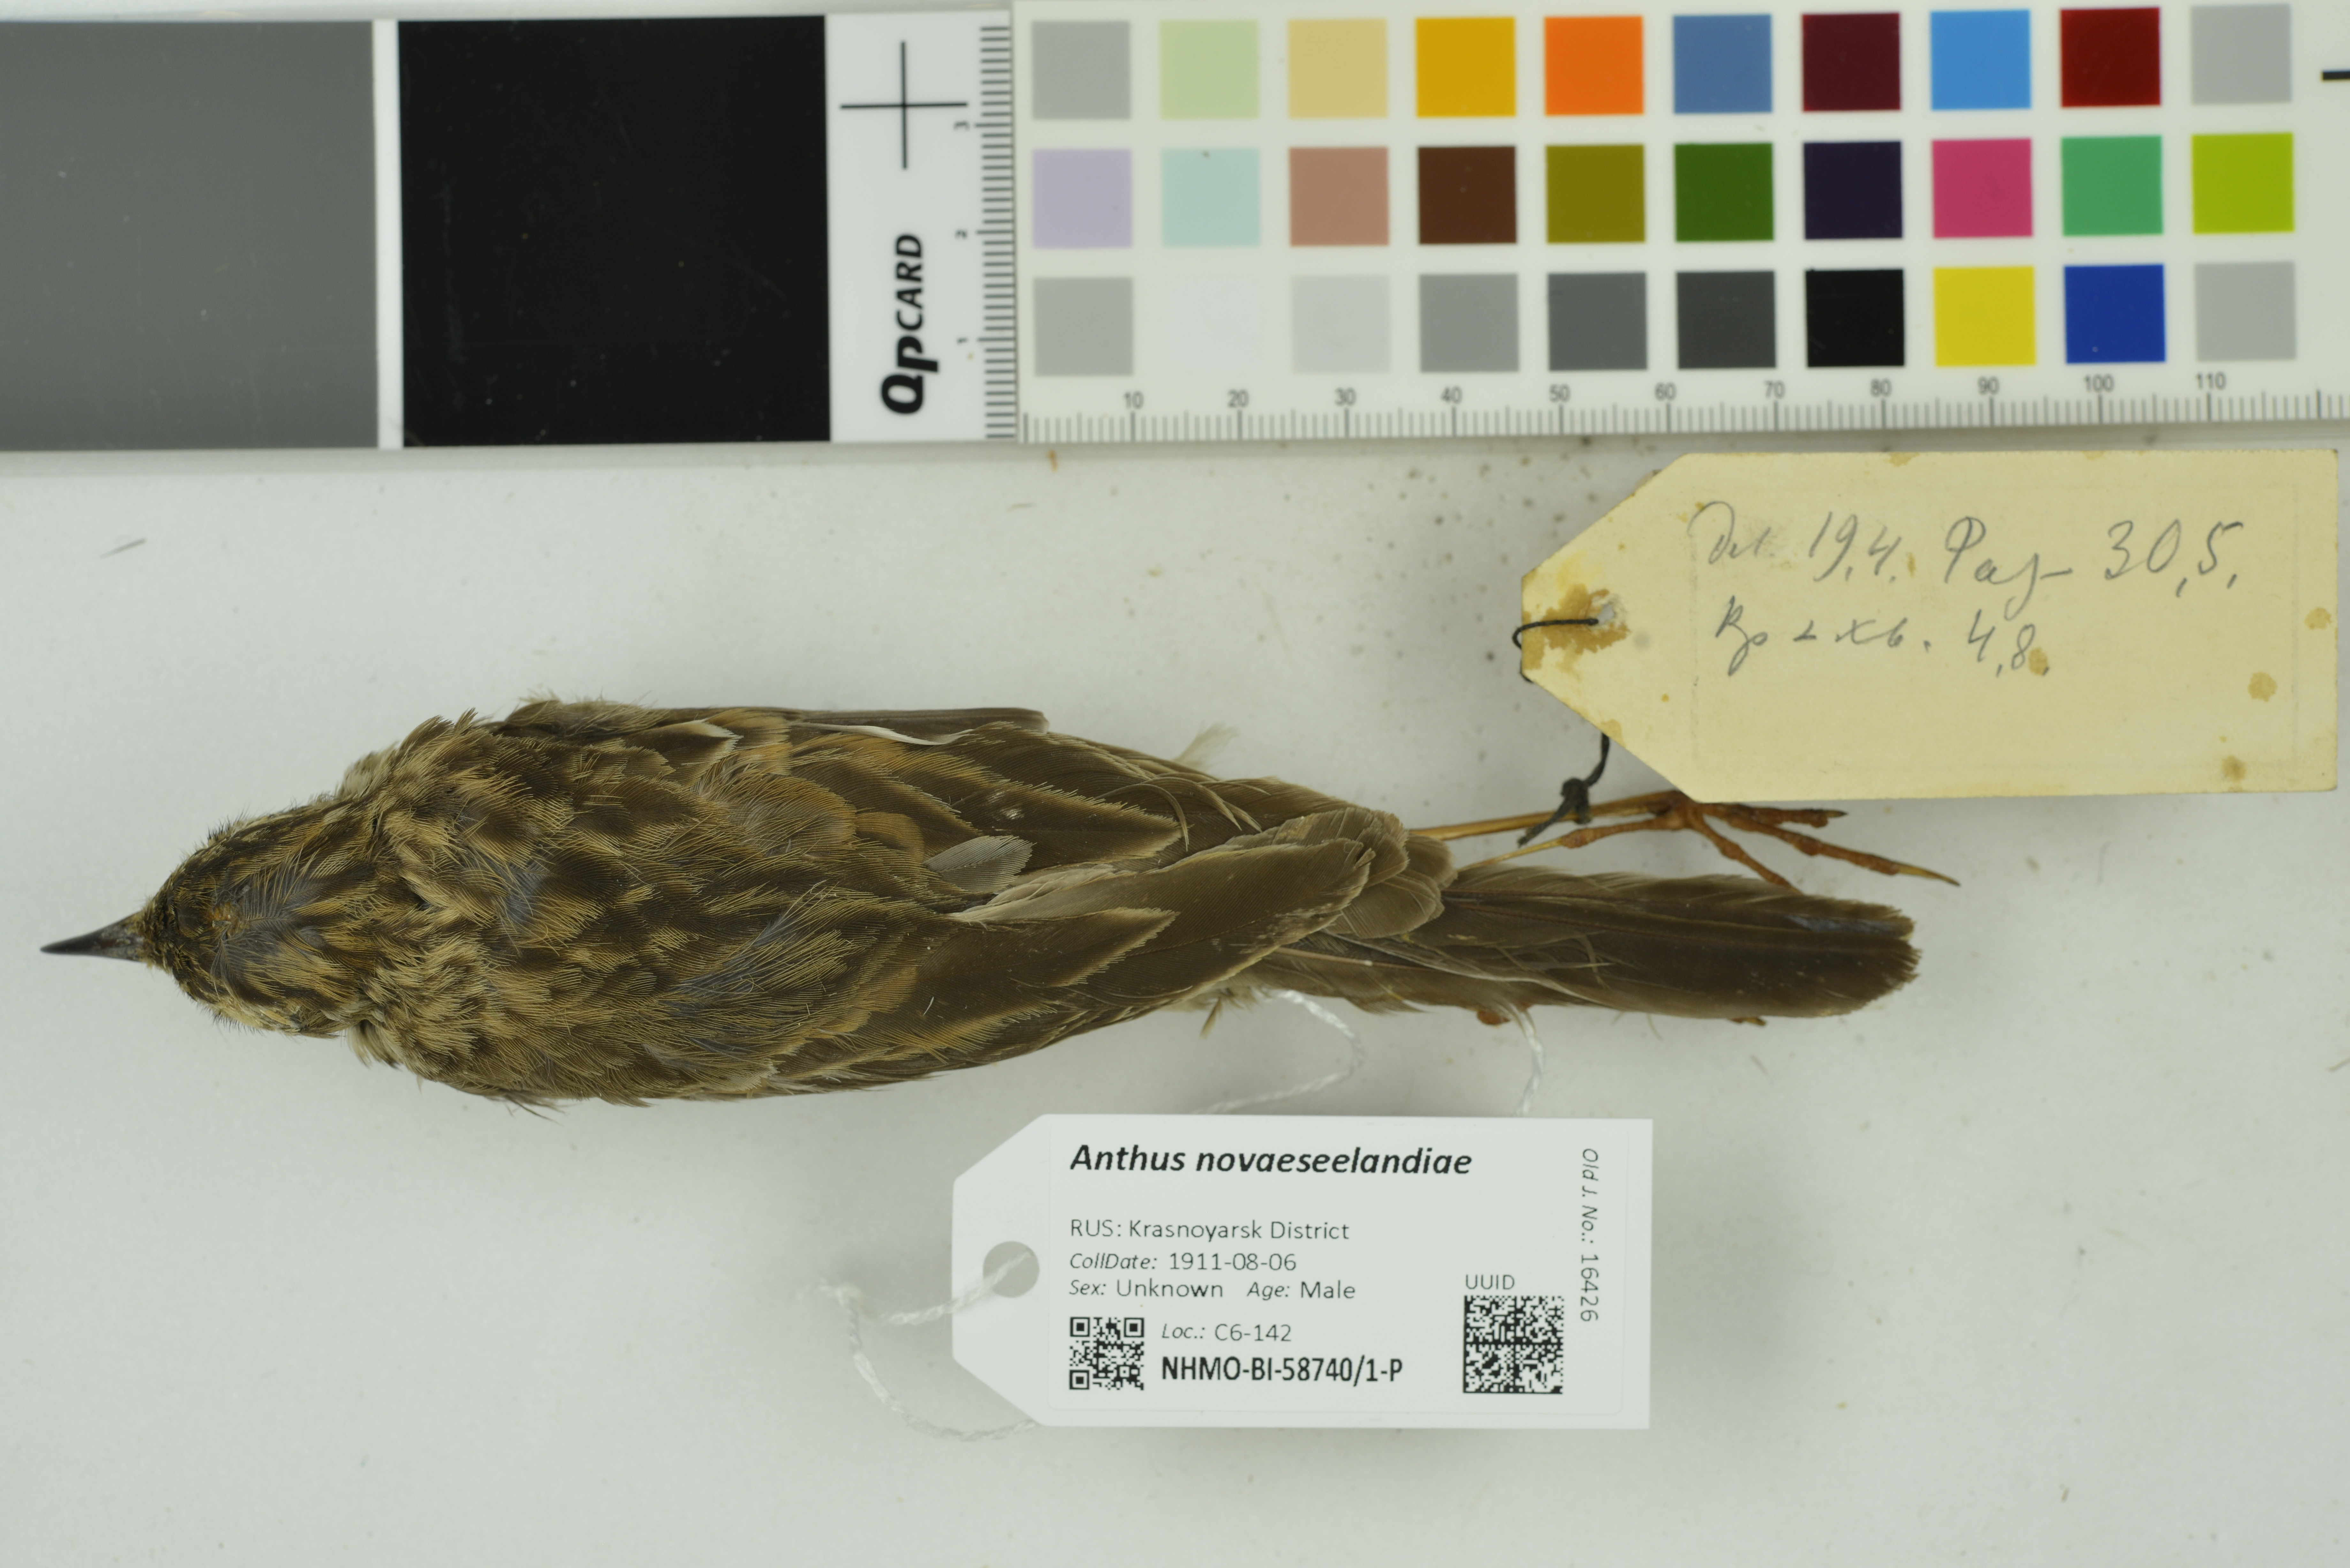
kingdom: Animalia
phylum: Chordata
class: Aves
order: Passeriformes
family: Motacillidae
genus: Anthus
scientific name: Anthus novaeseelandiae
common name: New zealand pipit
